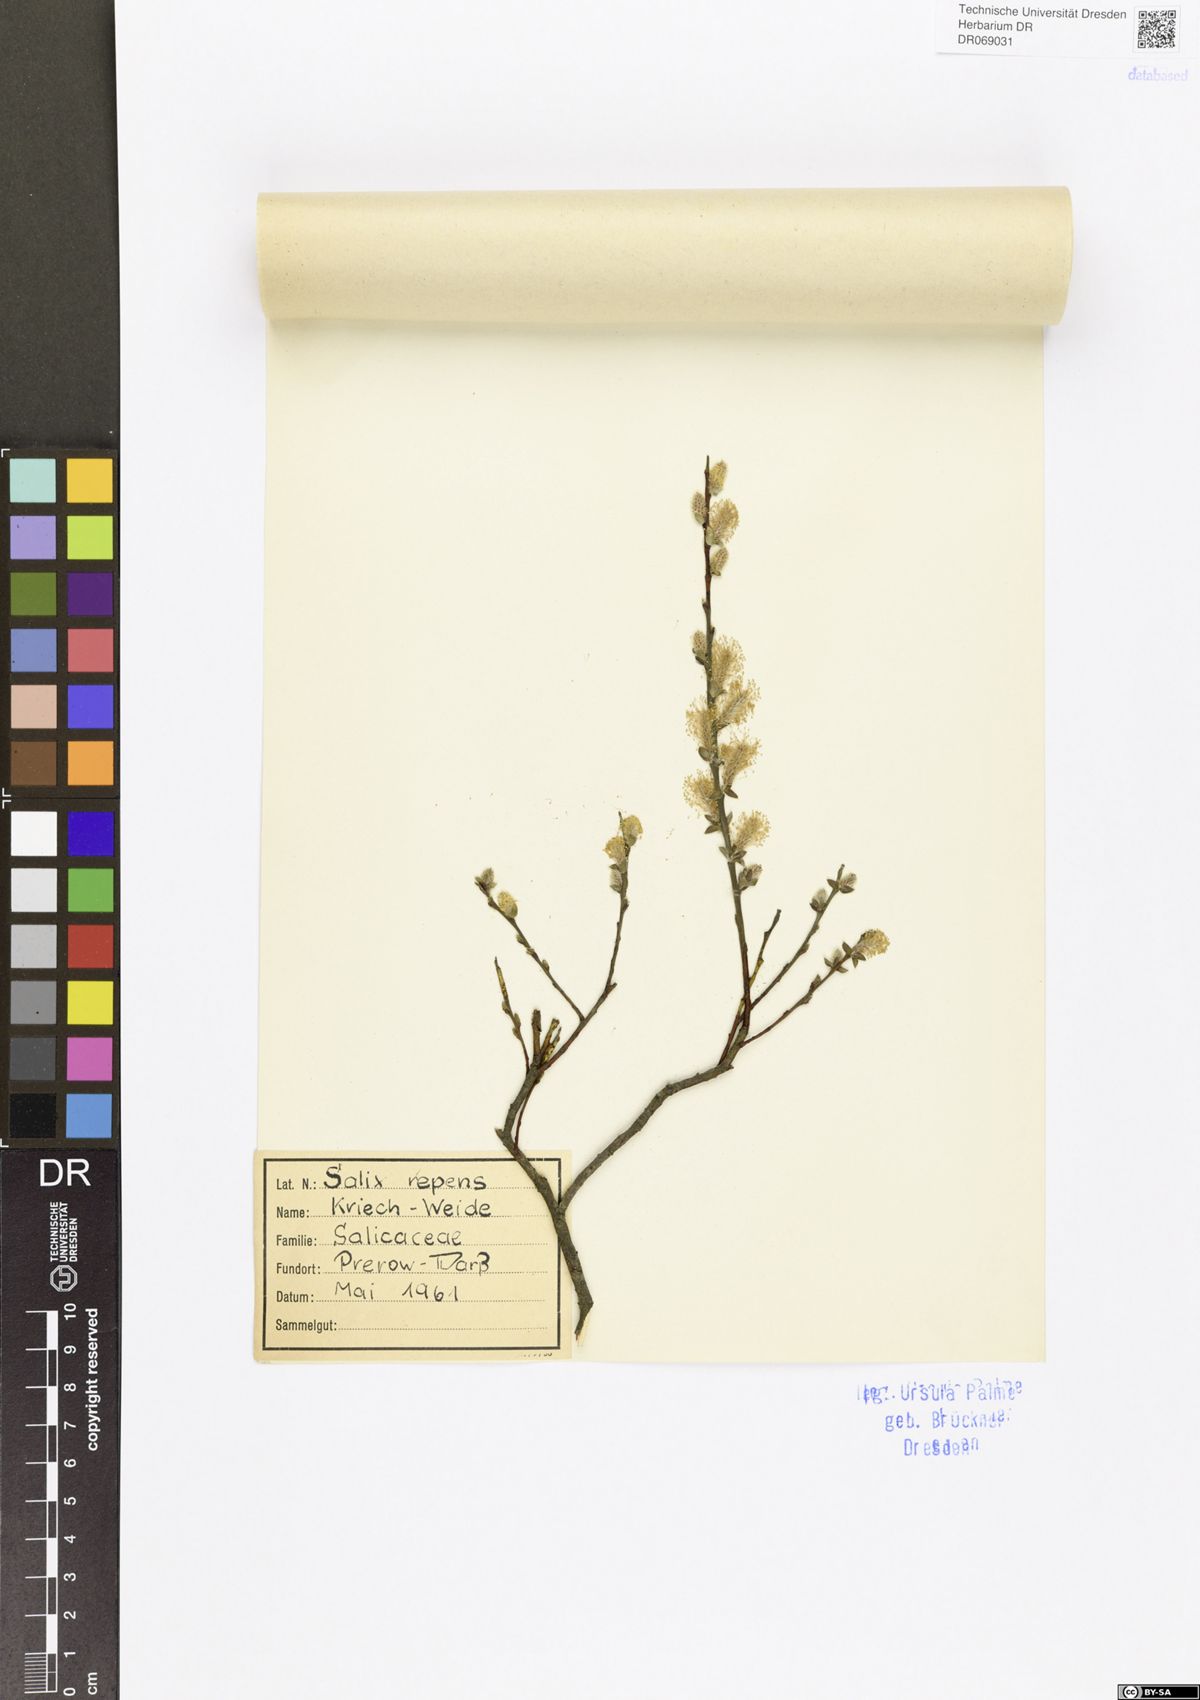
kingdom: Plantae
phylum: Tracheophyta
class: Magnoliopsida
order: Malpighiales
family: Salicaceae
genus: Salix
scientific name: Salix repens
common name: Creeping willow
